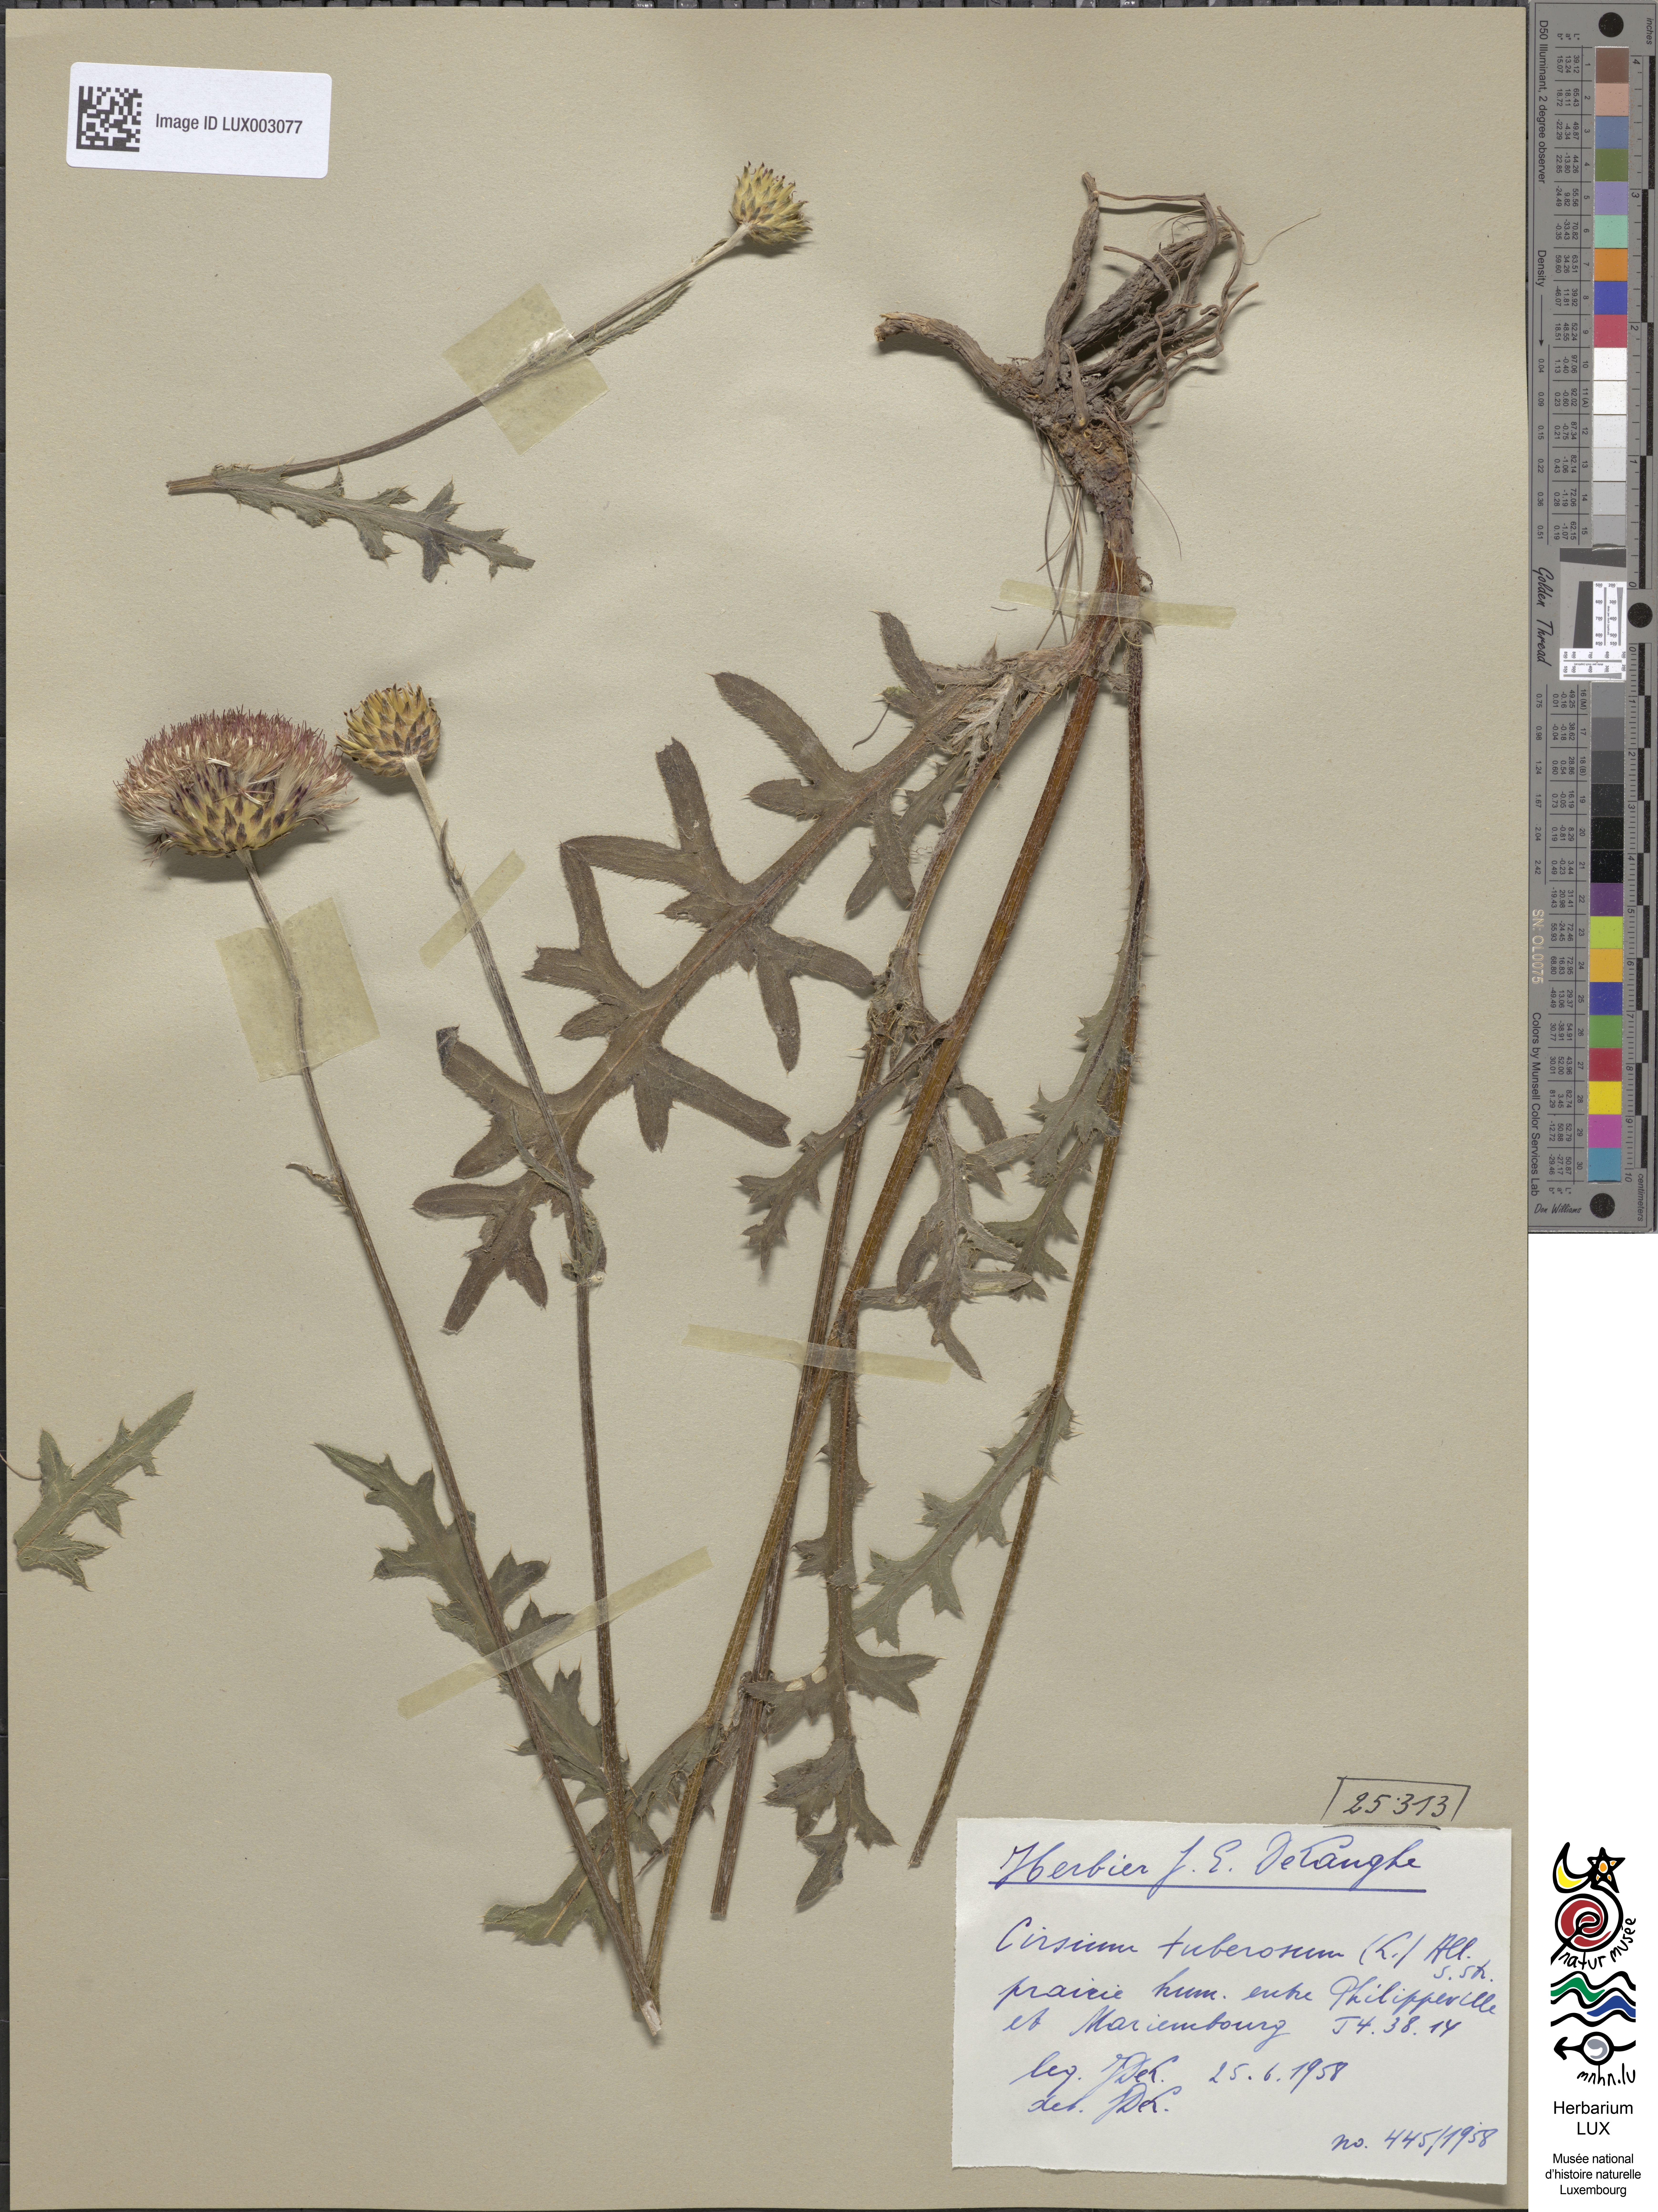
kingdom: Plantae
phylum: Tracheophyta
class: Magnoliopsida
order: Asterales
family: Asteraceae
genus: Cirsium
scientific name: Cirsium tuberosum
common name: Tuberous thistle
